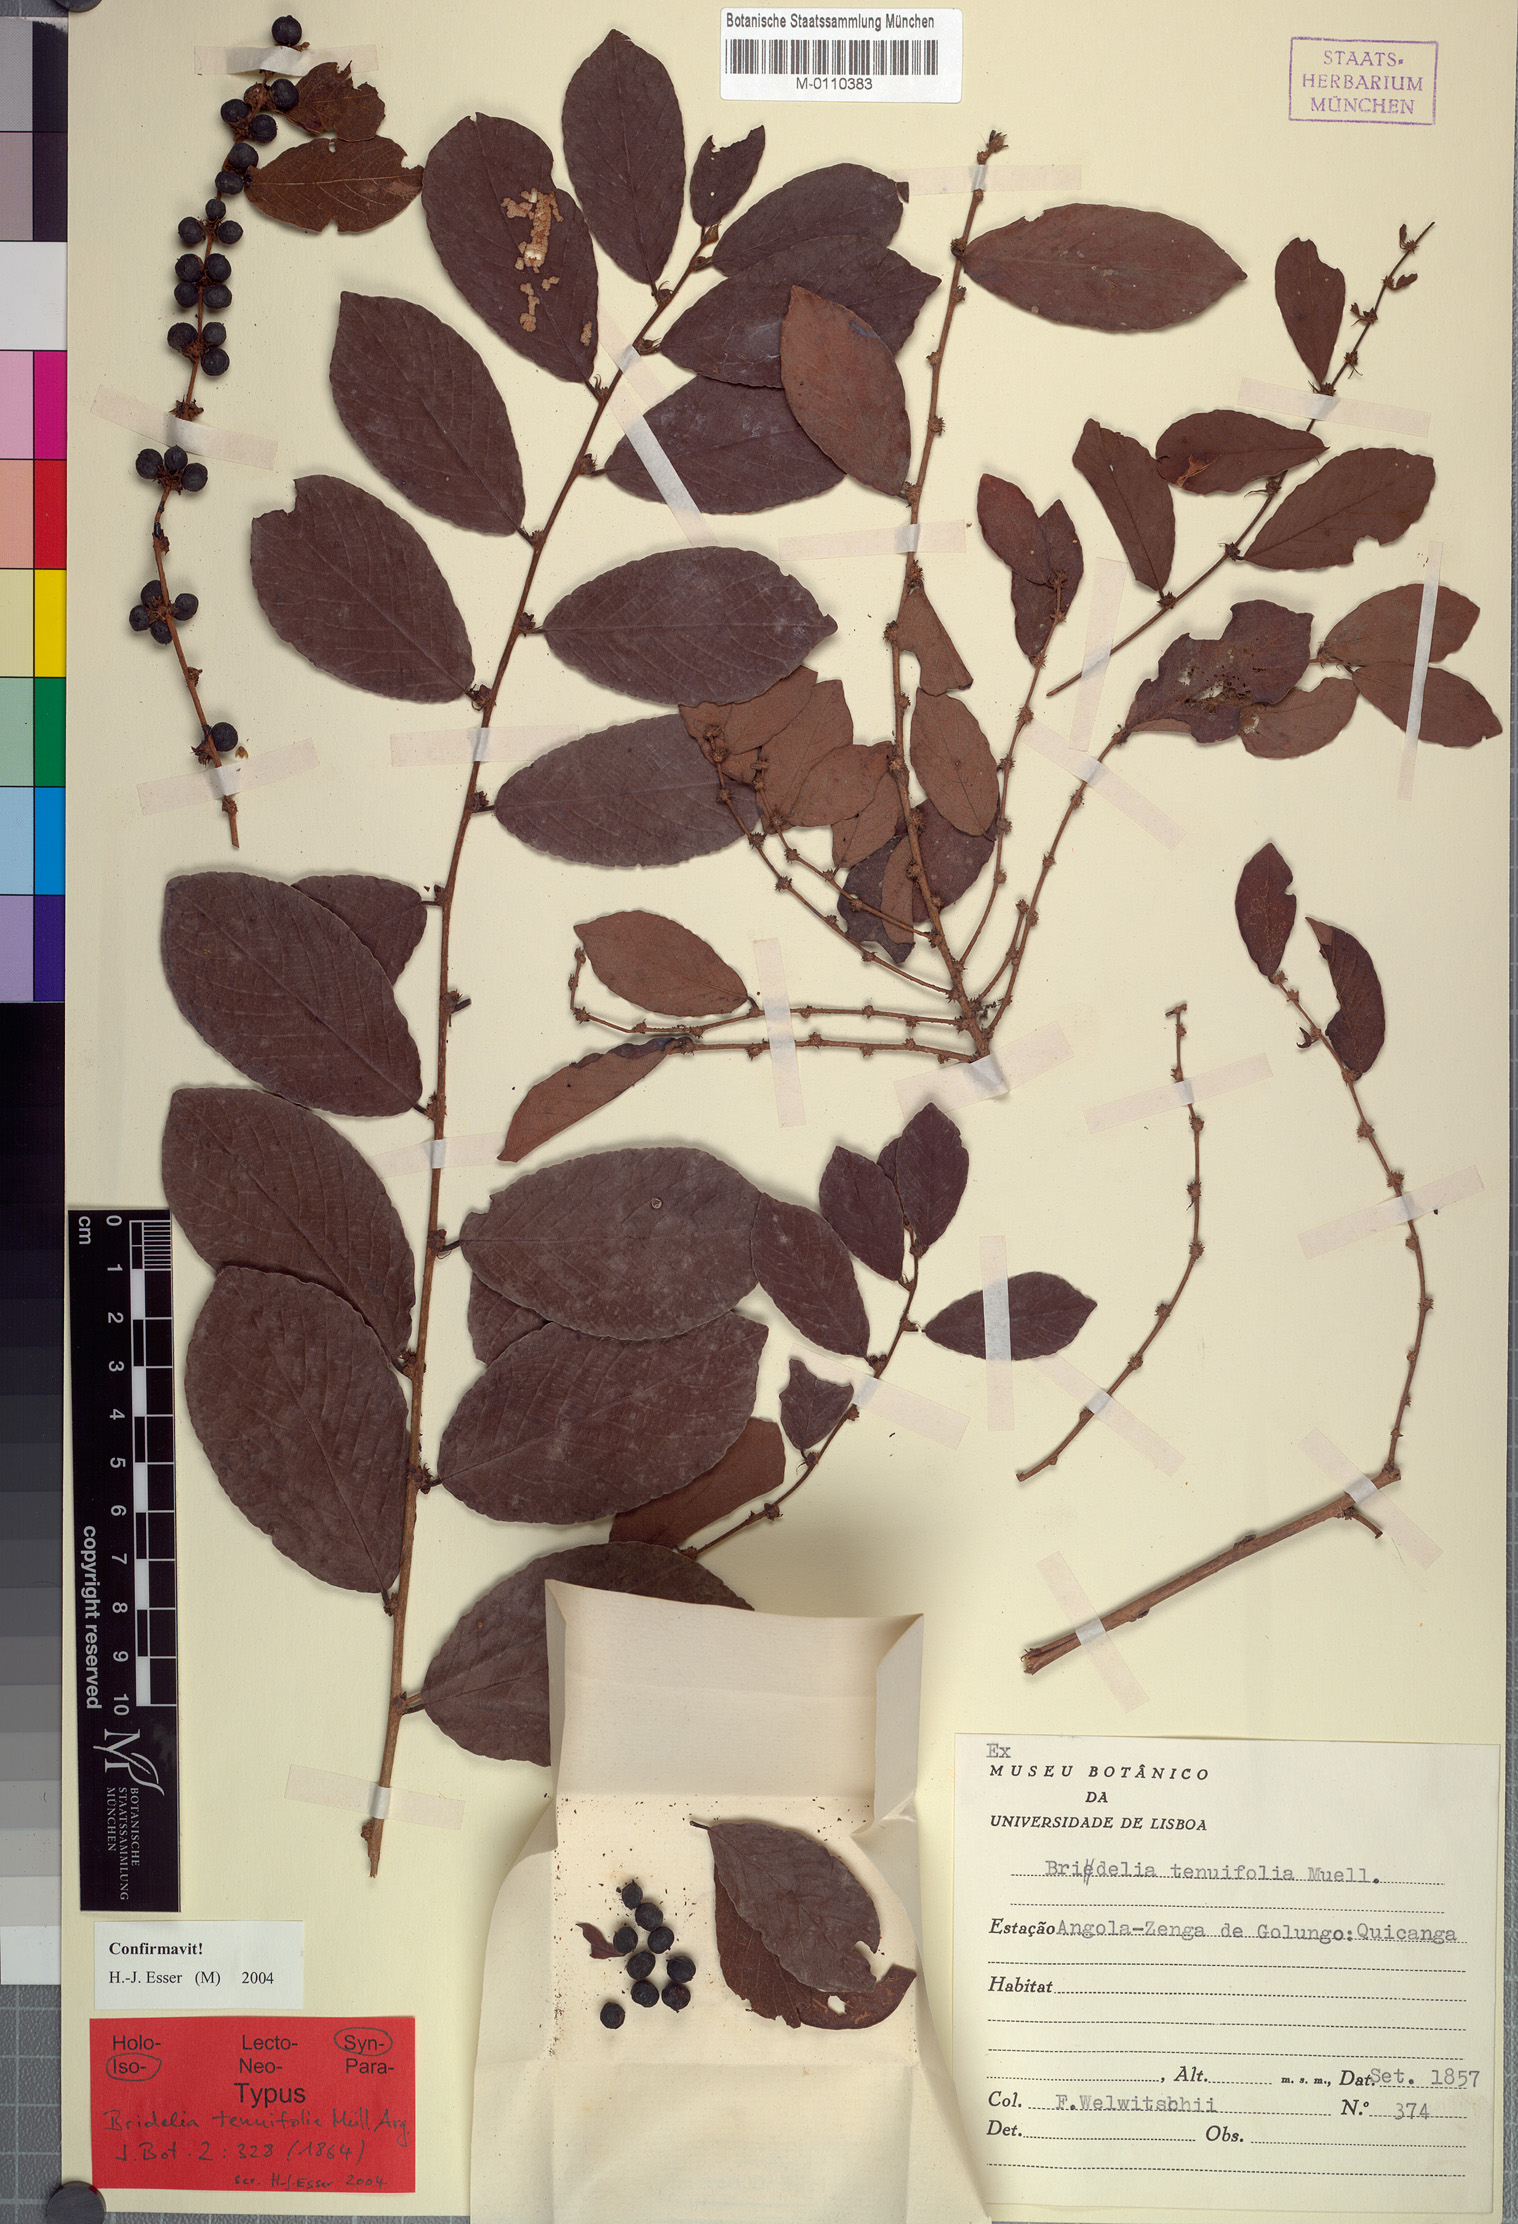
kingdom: Plantae
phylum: Tracheophyta
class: Magnoliopsida
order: Malpighiales
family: Phyllanthaceae
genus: Bridelia
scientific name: Bridelia tenuifolia
